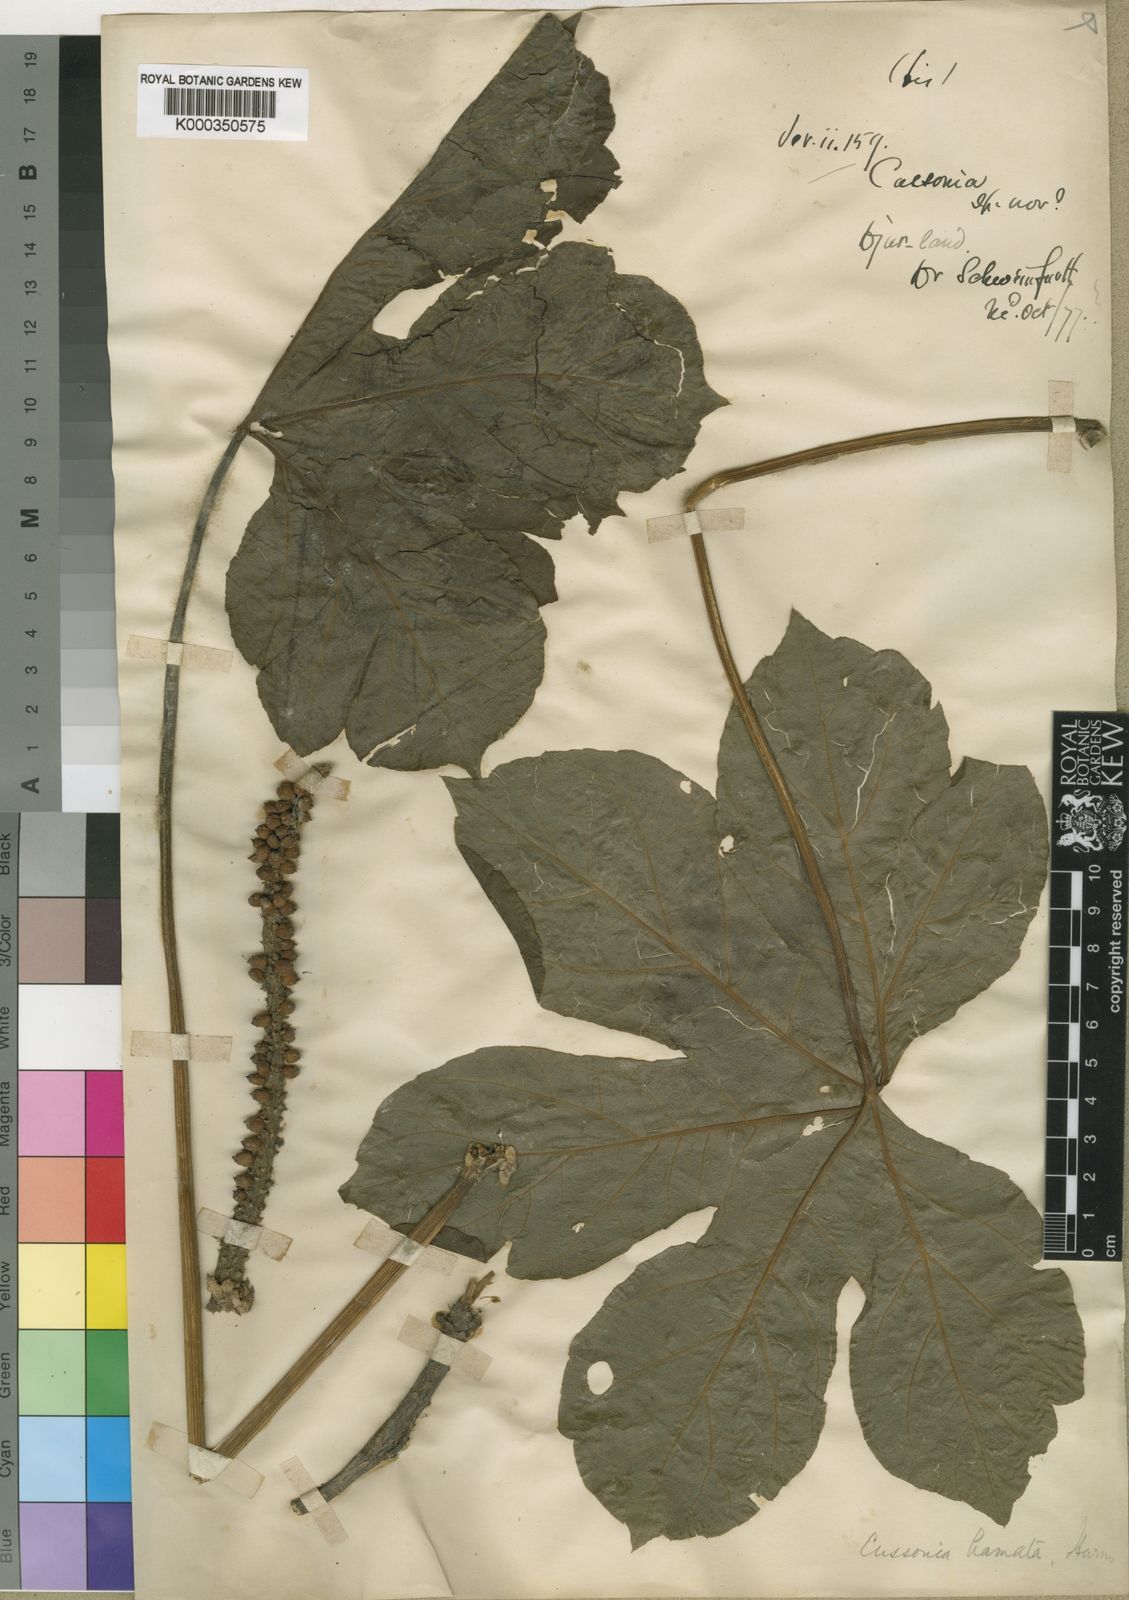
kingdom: Plantae
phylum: Tracheophyta
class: Magnoliopsida
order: Apiales
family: Araliaceae
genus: Cussonia
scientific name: Cussonia arborea
